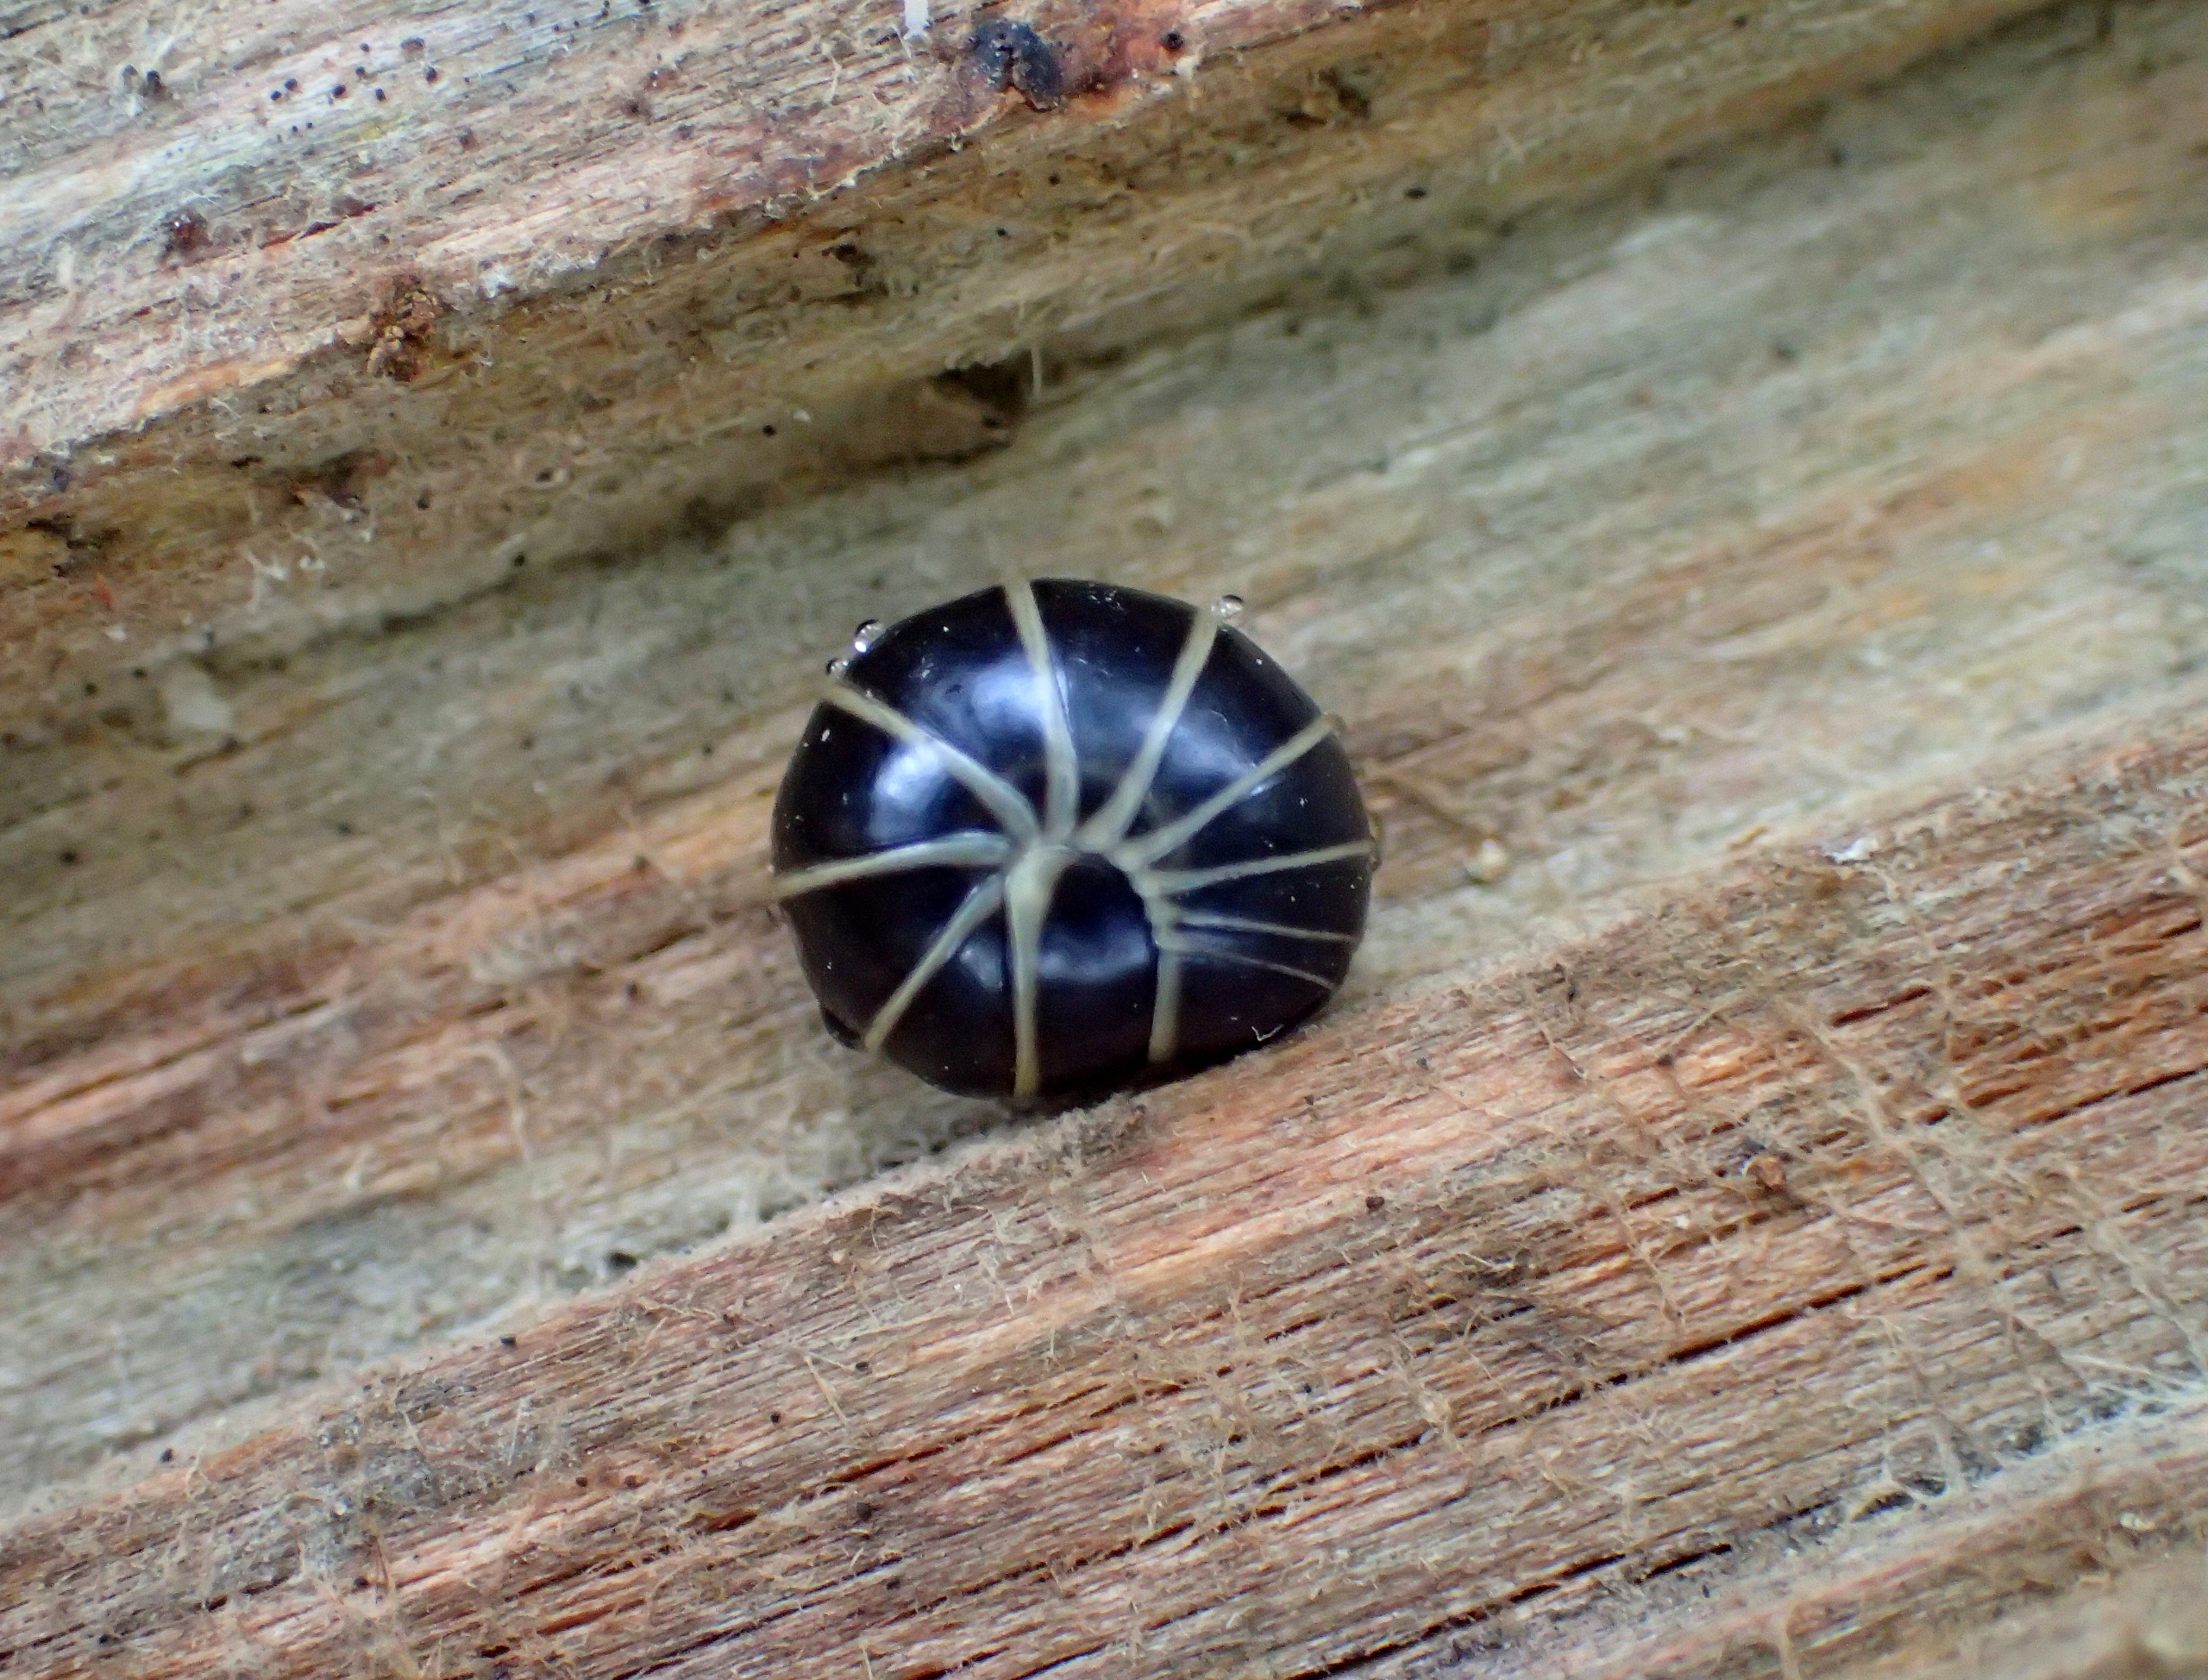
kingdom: Animalia
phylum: Arthropoda
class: Diplopoda
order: Glomerida
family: Glomeridae
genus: Glomeris
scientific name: Glomeris marginata
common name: Kugletusindben
